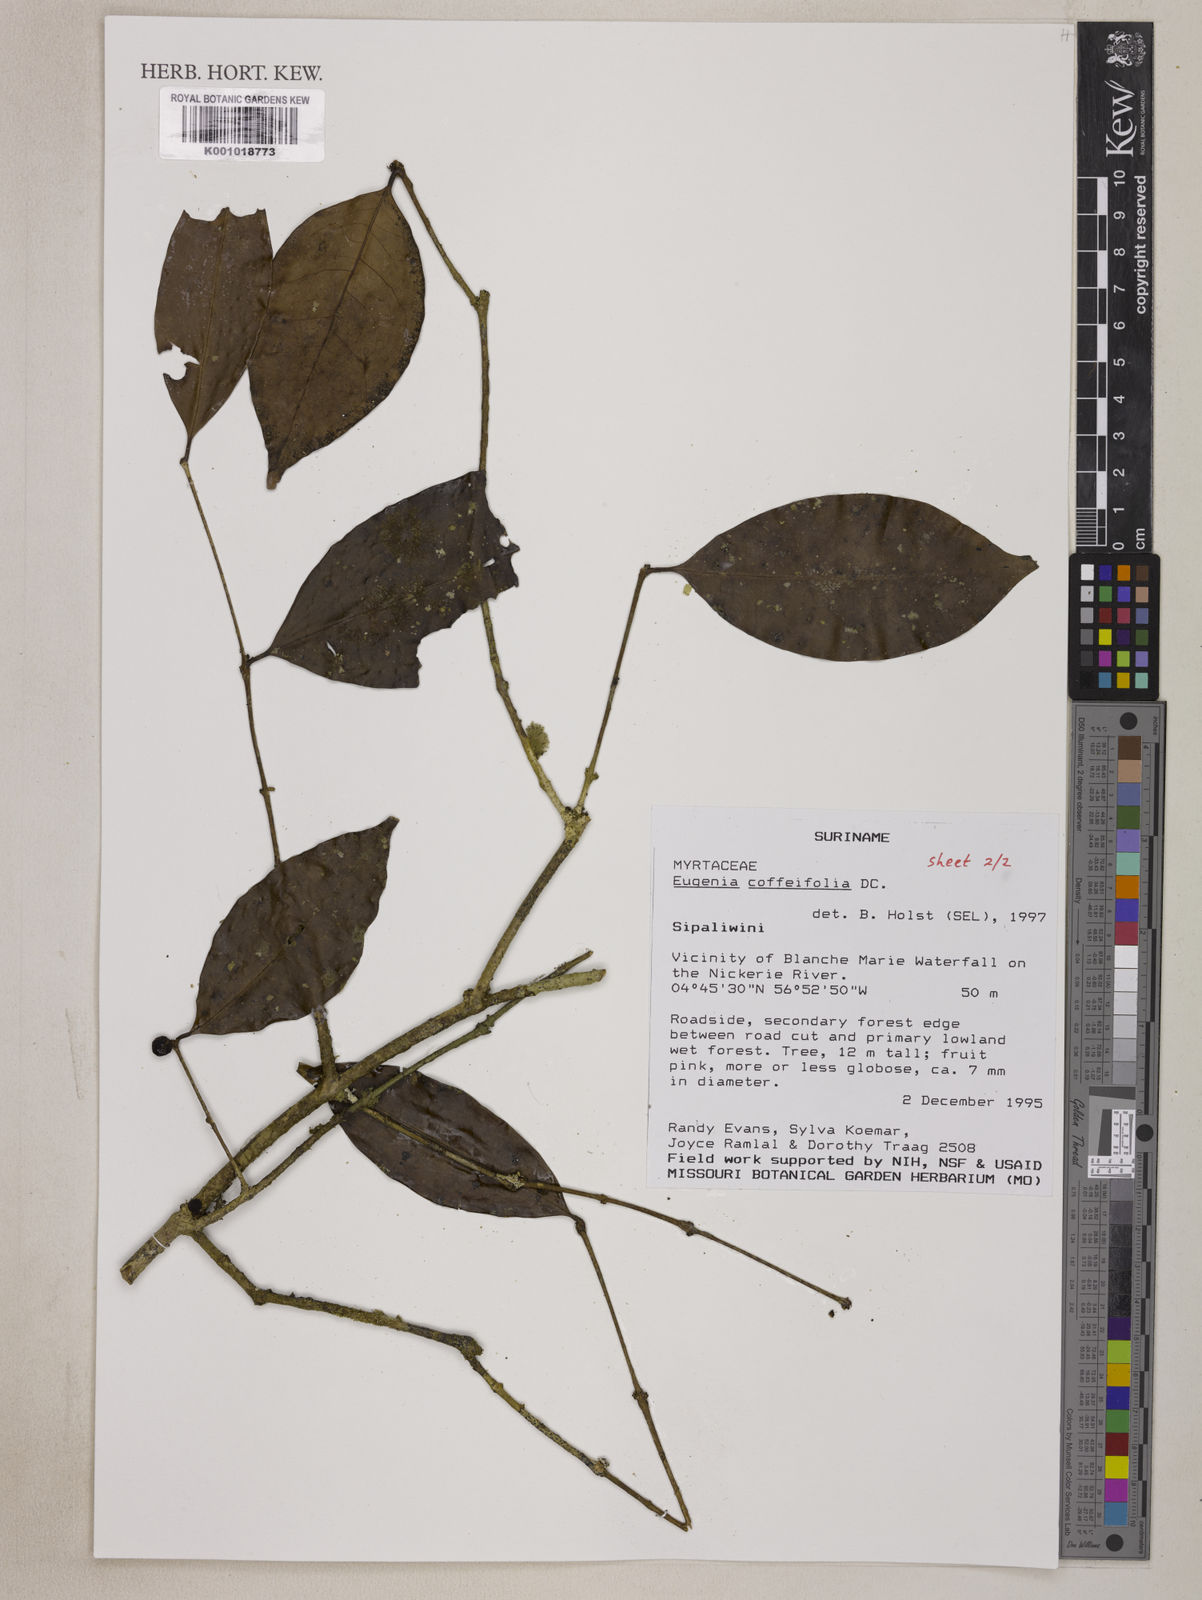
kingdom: Plantae
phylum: Tracheophyta
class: Magnoliopsida
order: Myrtales
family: Myrtaceae
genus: Eugenia
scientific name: Eugenia coffeifolia
